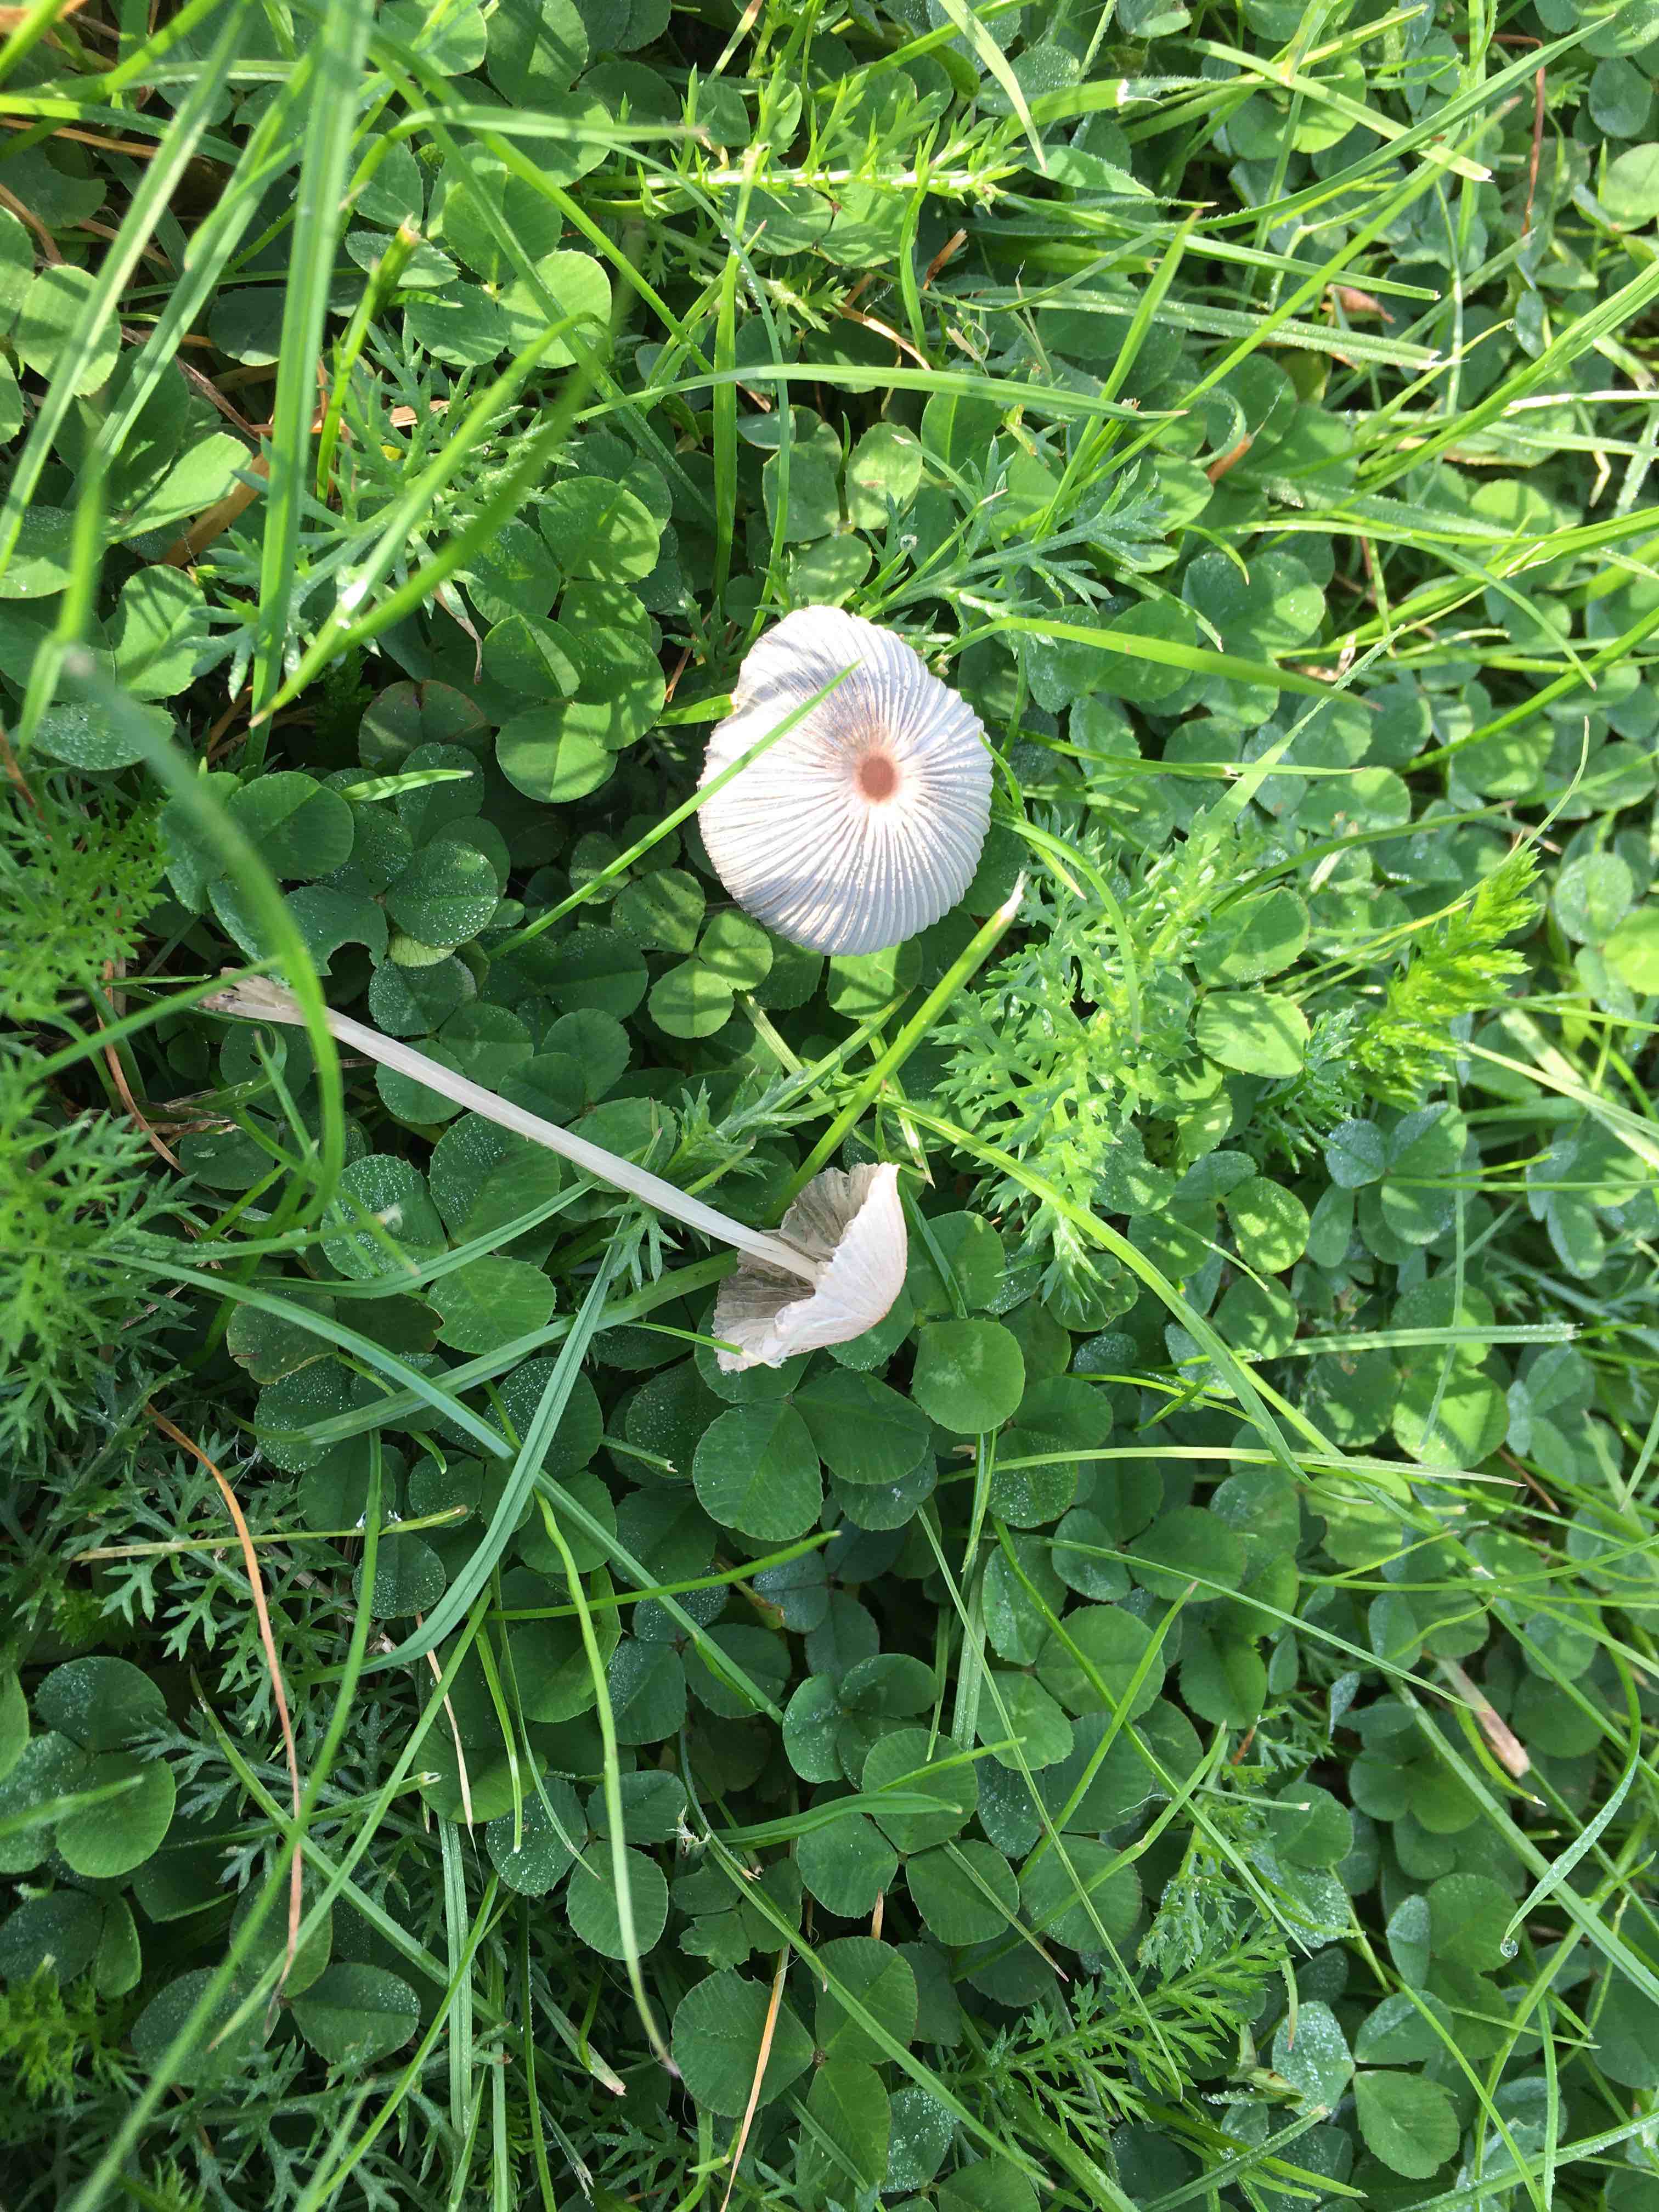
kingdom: Fungi
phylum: Basidiomycota
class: Agaricomycetes
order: Agaricales
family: Psathyrellaceae
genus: Parasola
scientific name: Parasola
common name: hjulhat
